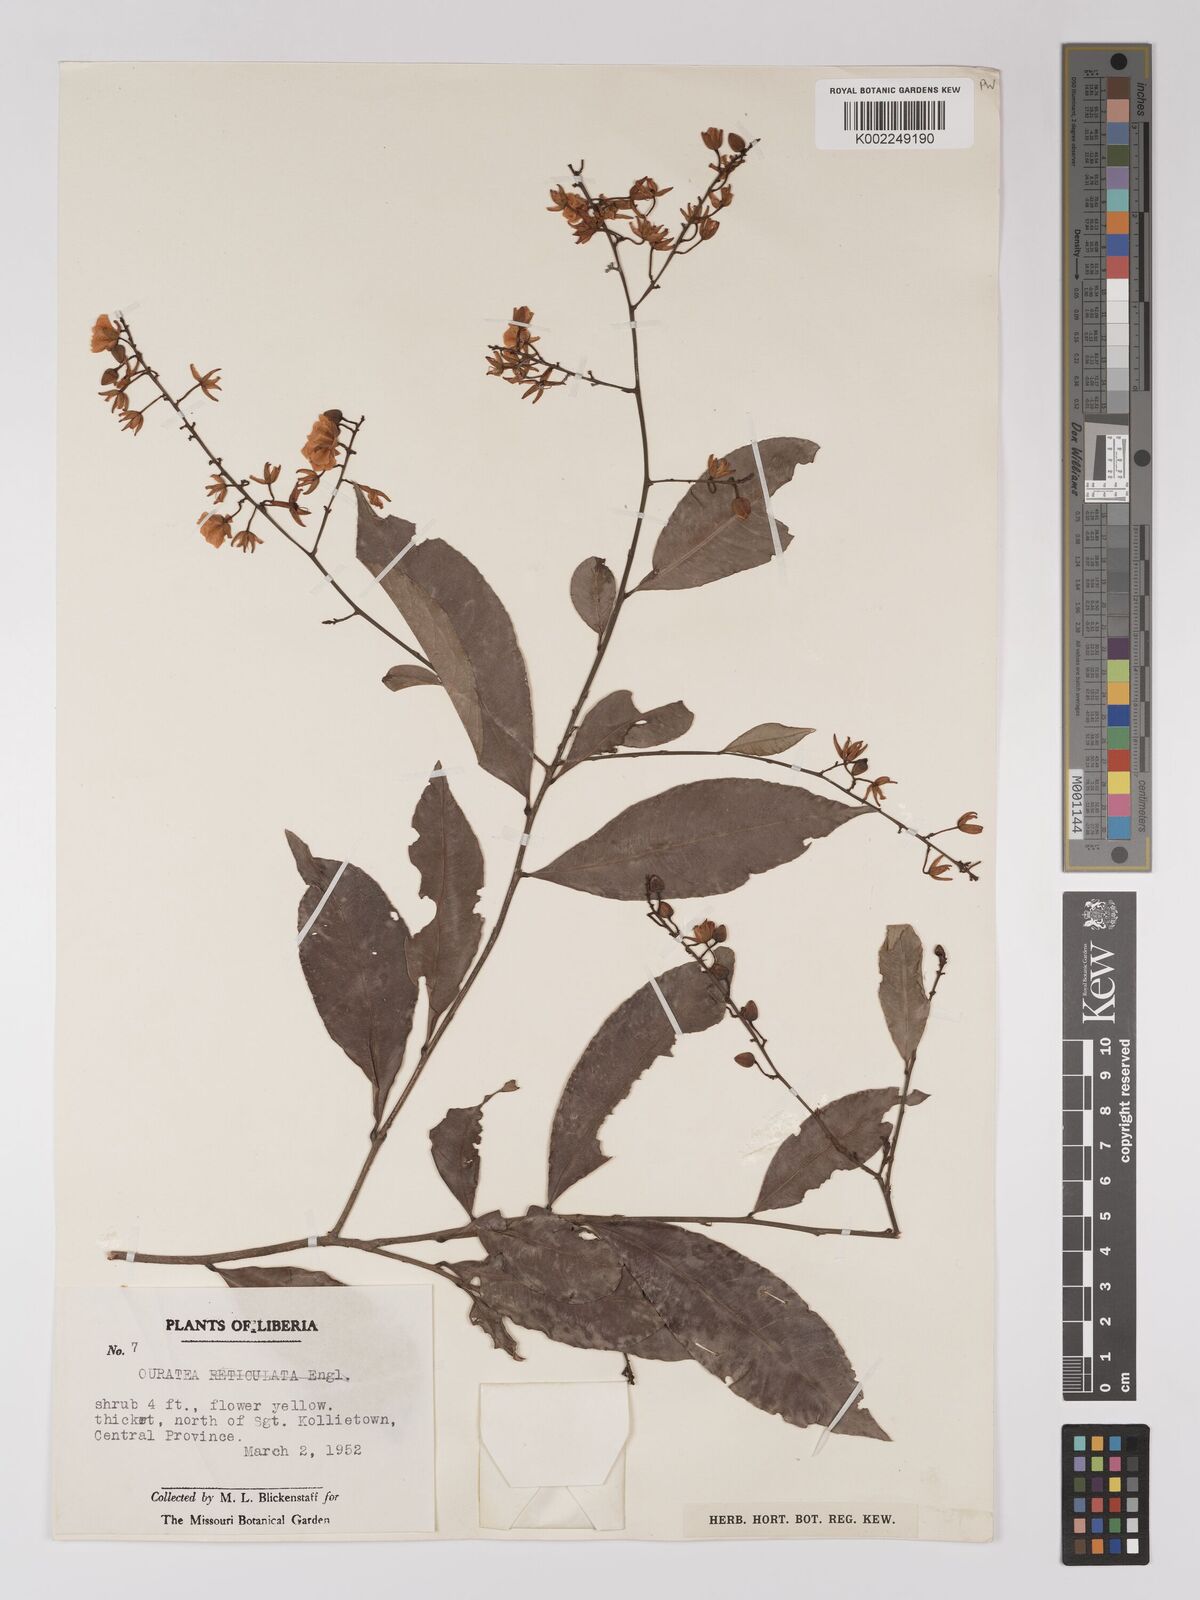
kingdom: Plantae
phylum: Tracheophyta
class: Magnoliopsida
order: Malpighiales
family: Ochnaceae
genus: Campylospermum
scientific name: Campylospermum squamosum
